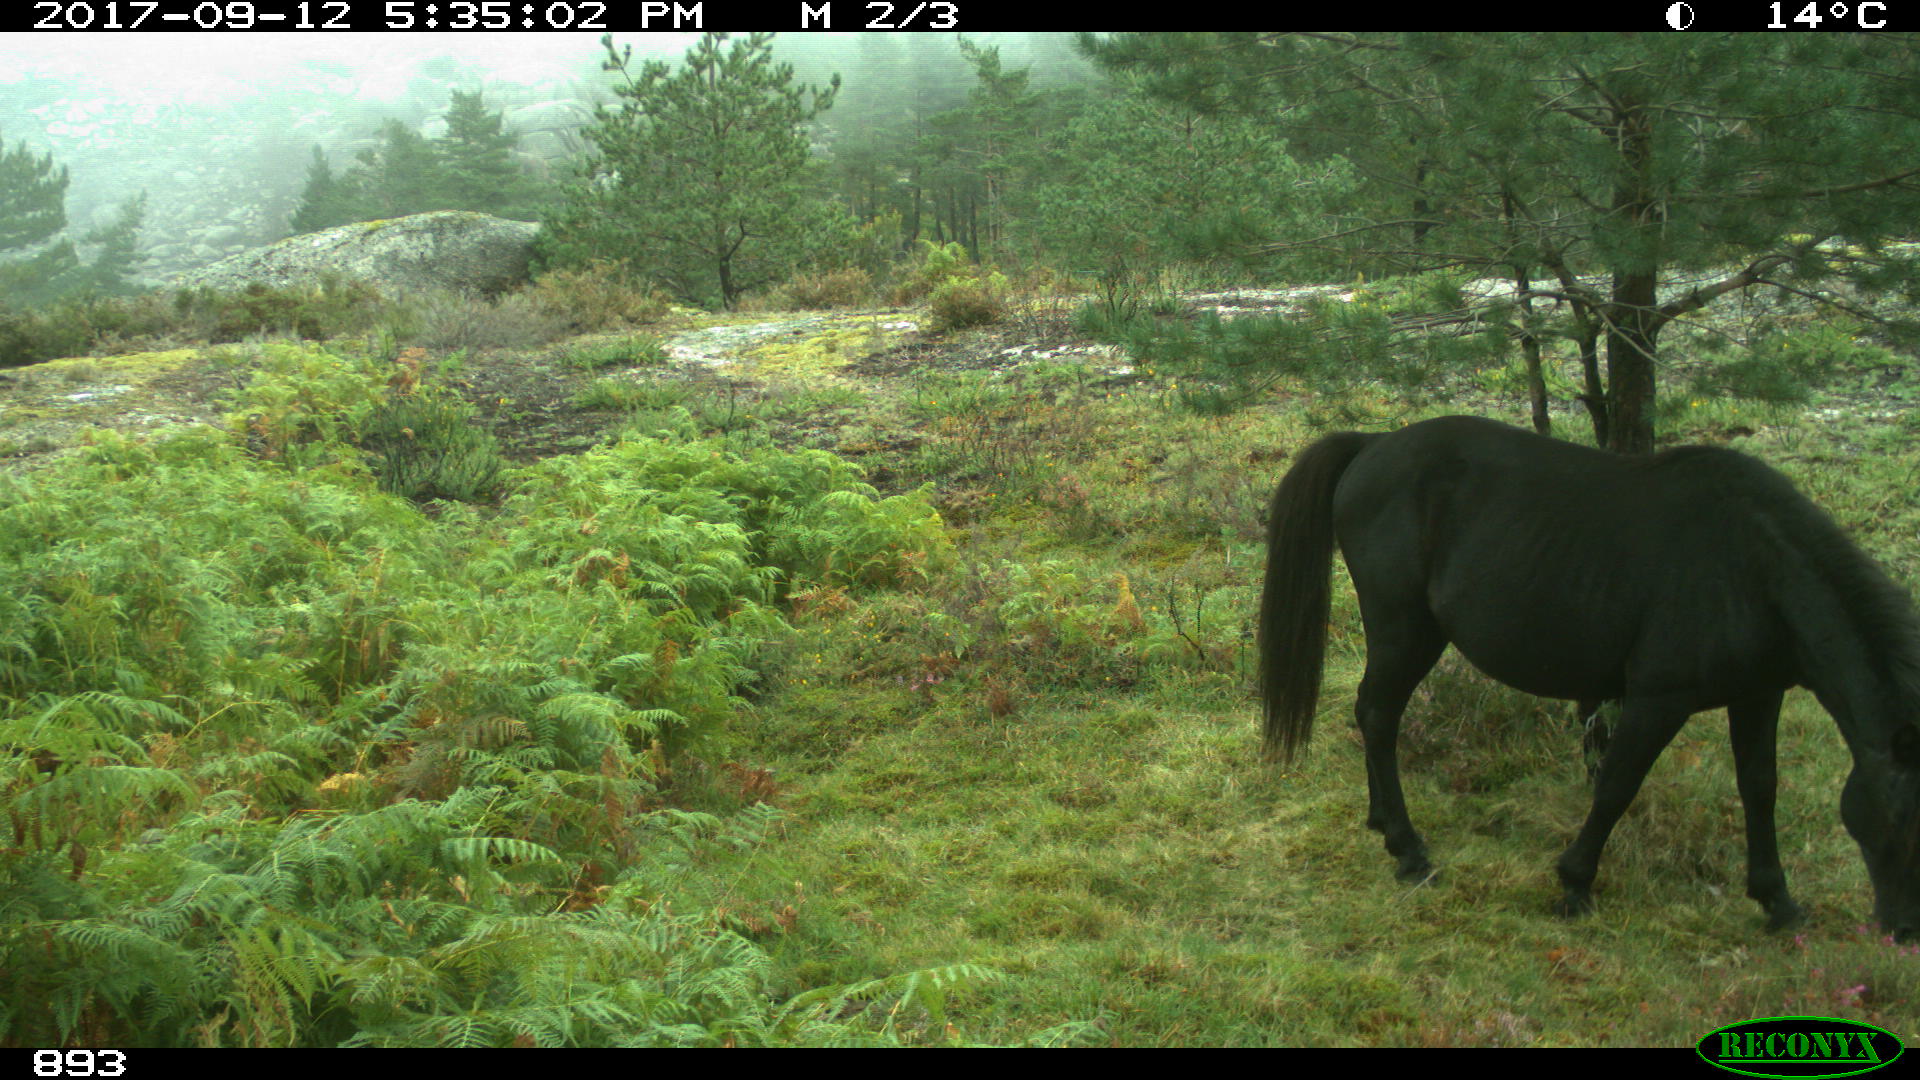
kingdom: Animalia
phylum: Chordata
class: Mammalia
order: Perissodactyla
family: Equidae
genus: Equus
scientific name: Equus caballus
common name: Horse
